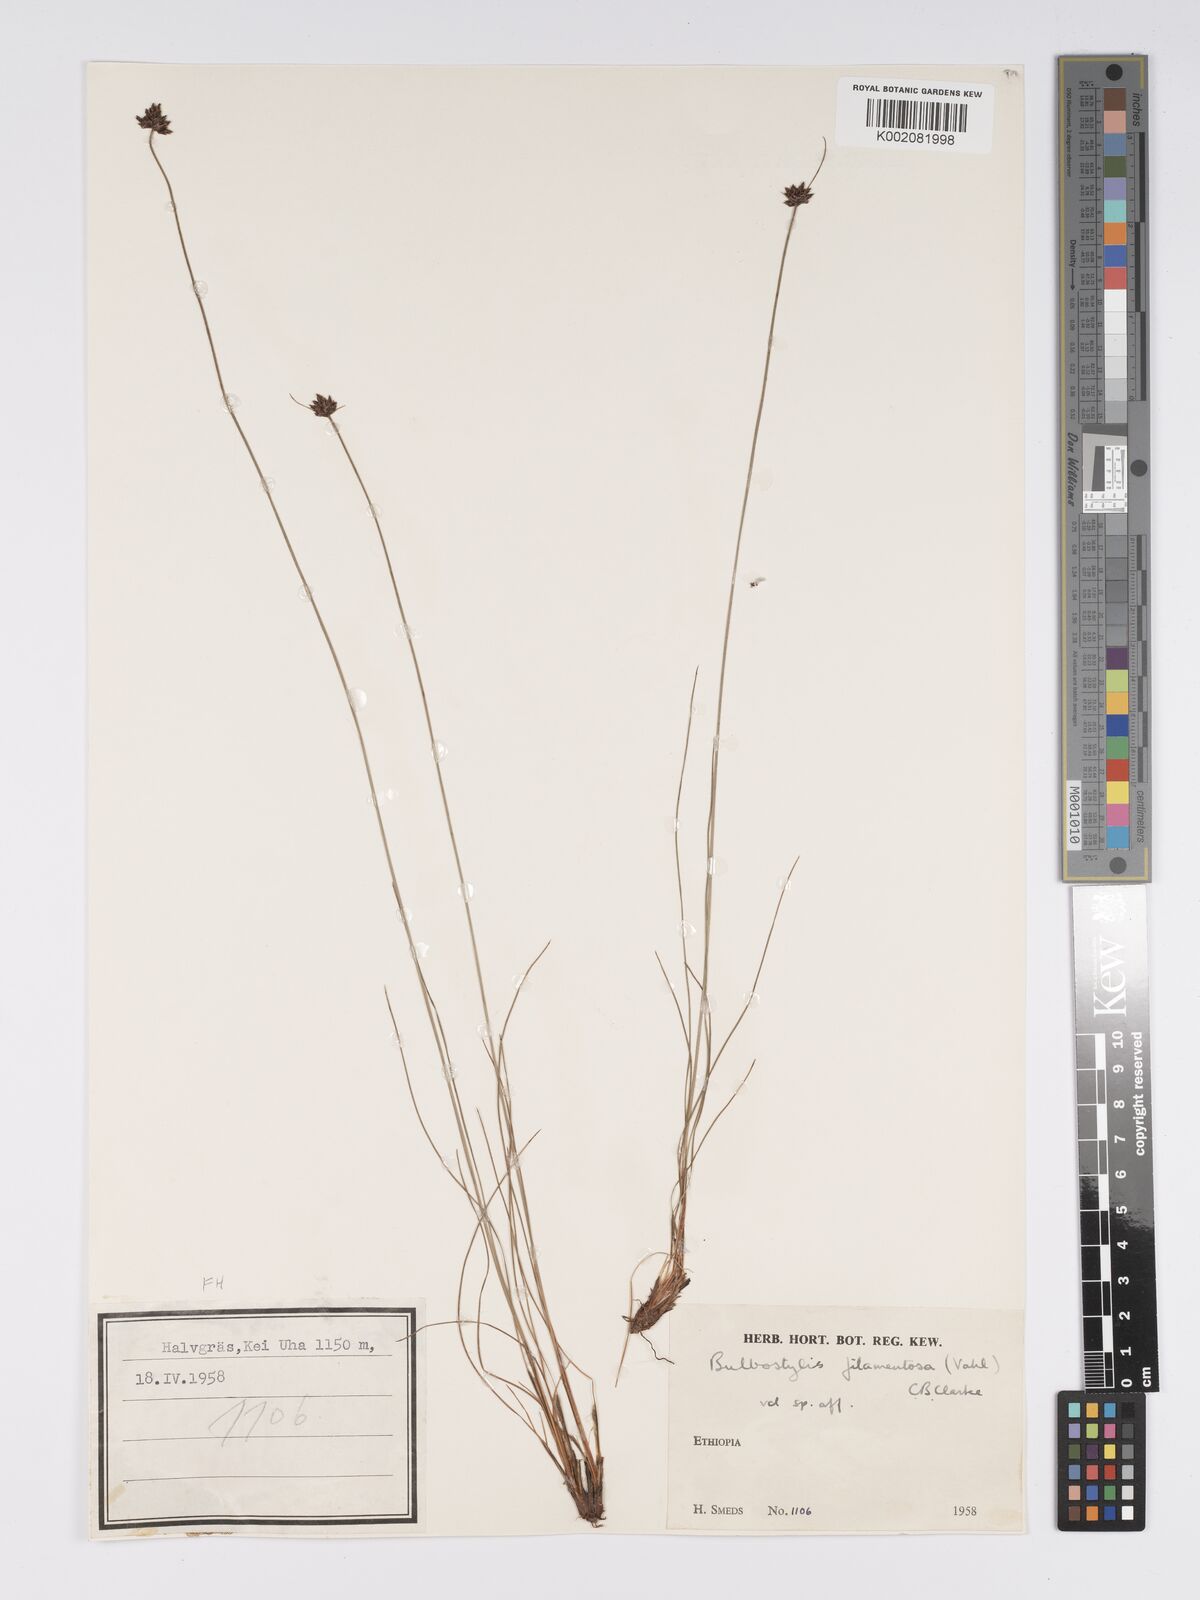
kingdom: Plantae
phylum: Tracheophyta
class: Liliopsida
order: Poales
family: Cyperaceae
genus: Bulbostylis
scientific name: Bulbostylis scabricaulis
